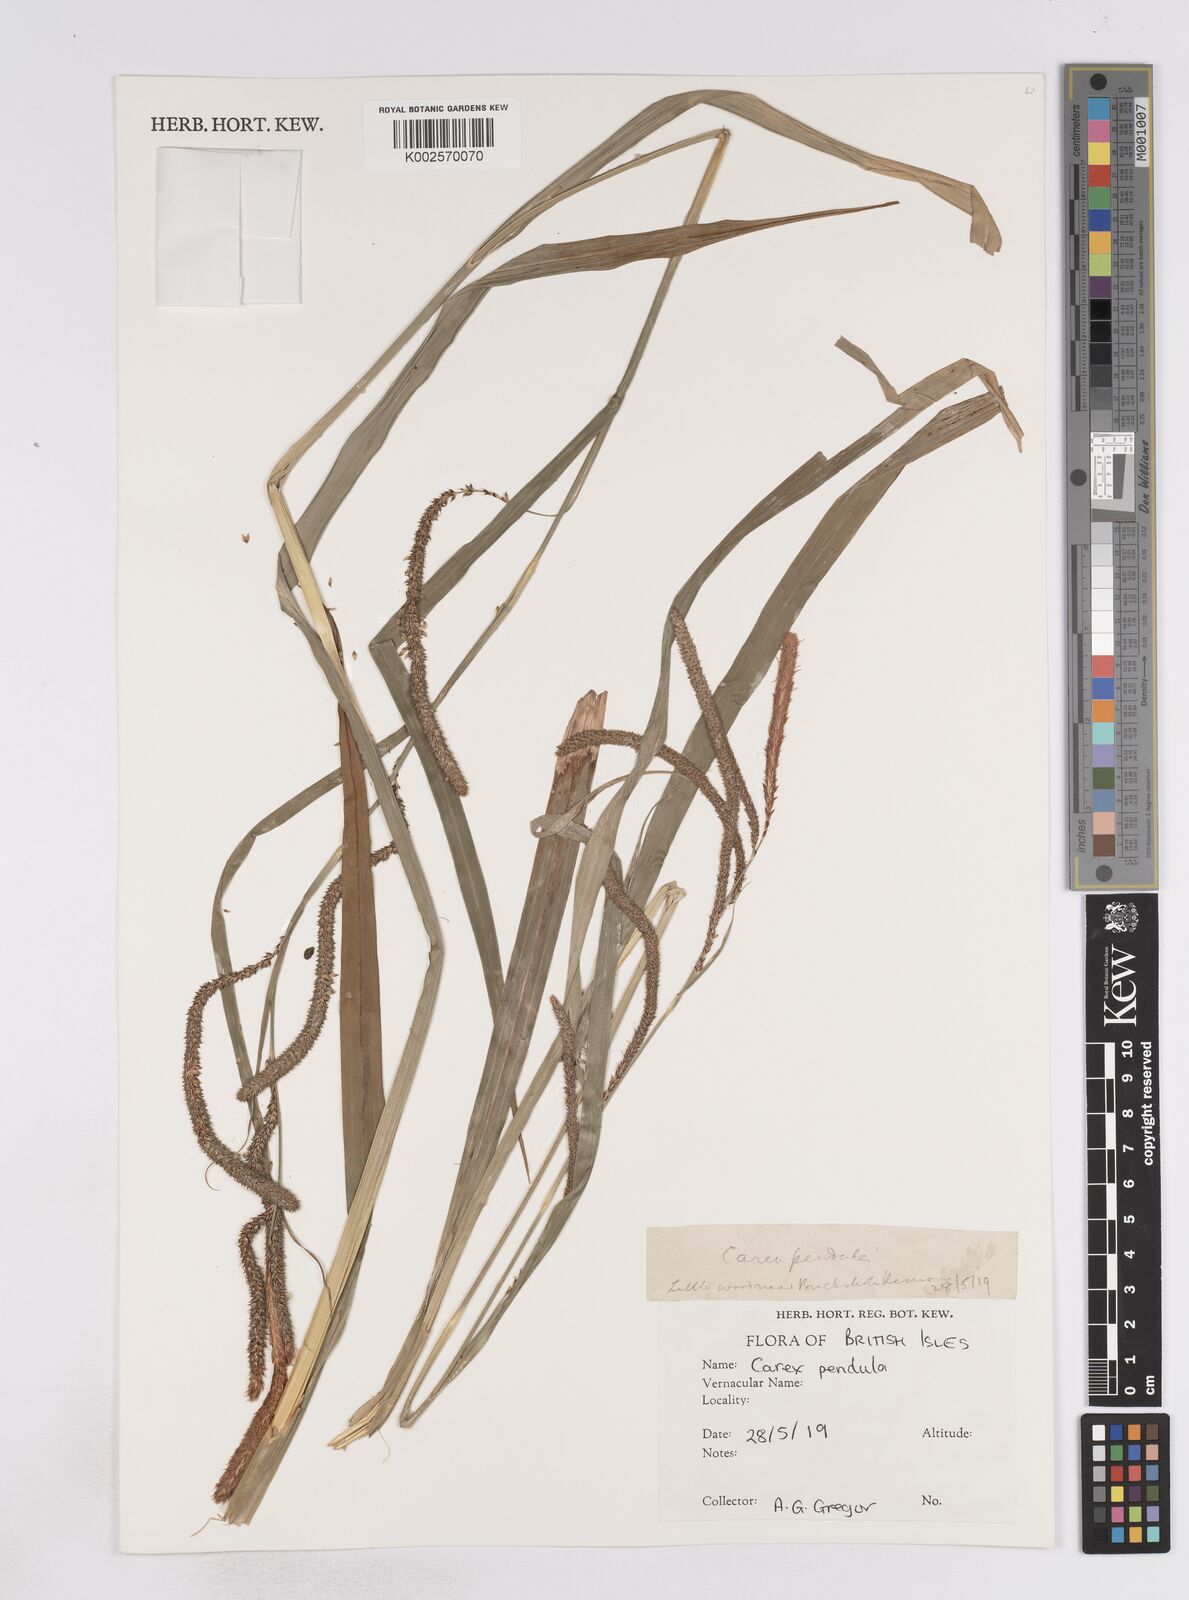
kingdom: Plantae
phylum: Tracheophyta
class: Liliopsida
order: Poales
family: Cyperaceae
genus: Carex
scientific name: Carex pendula
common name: Pendulous sedge
